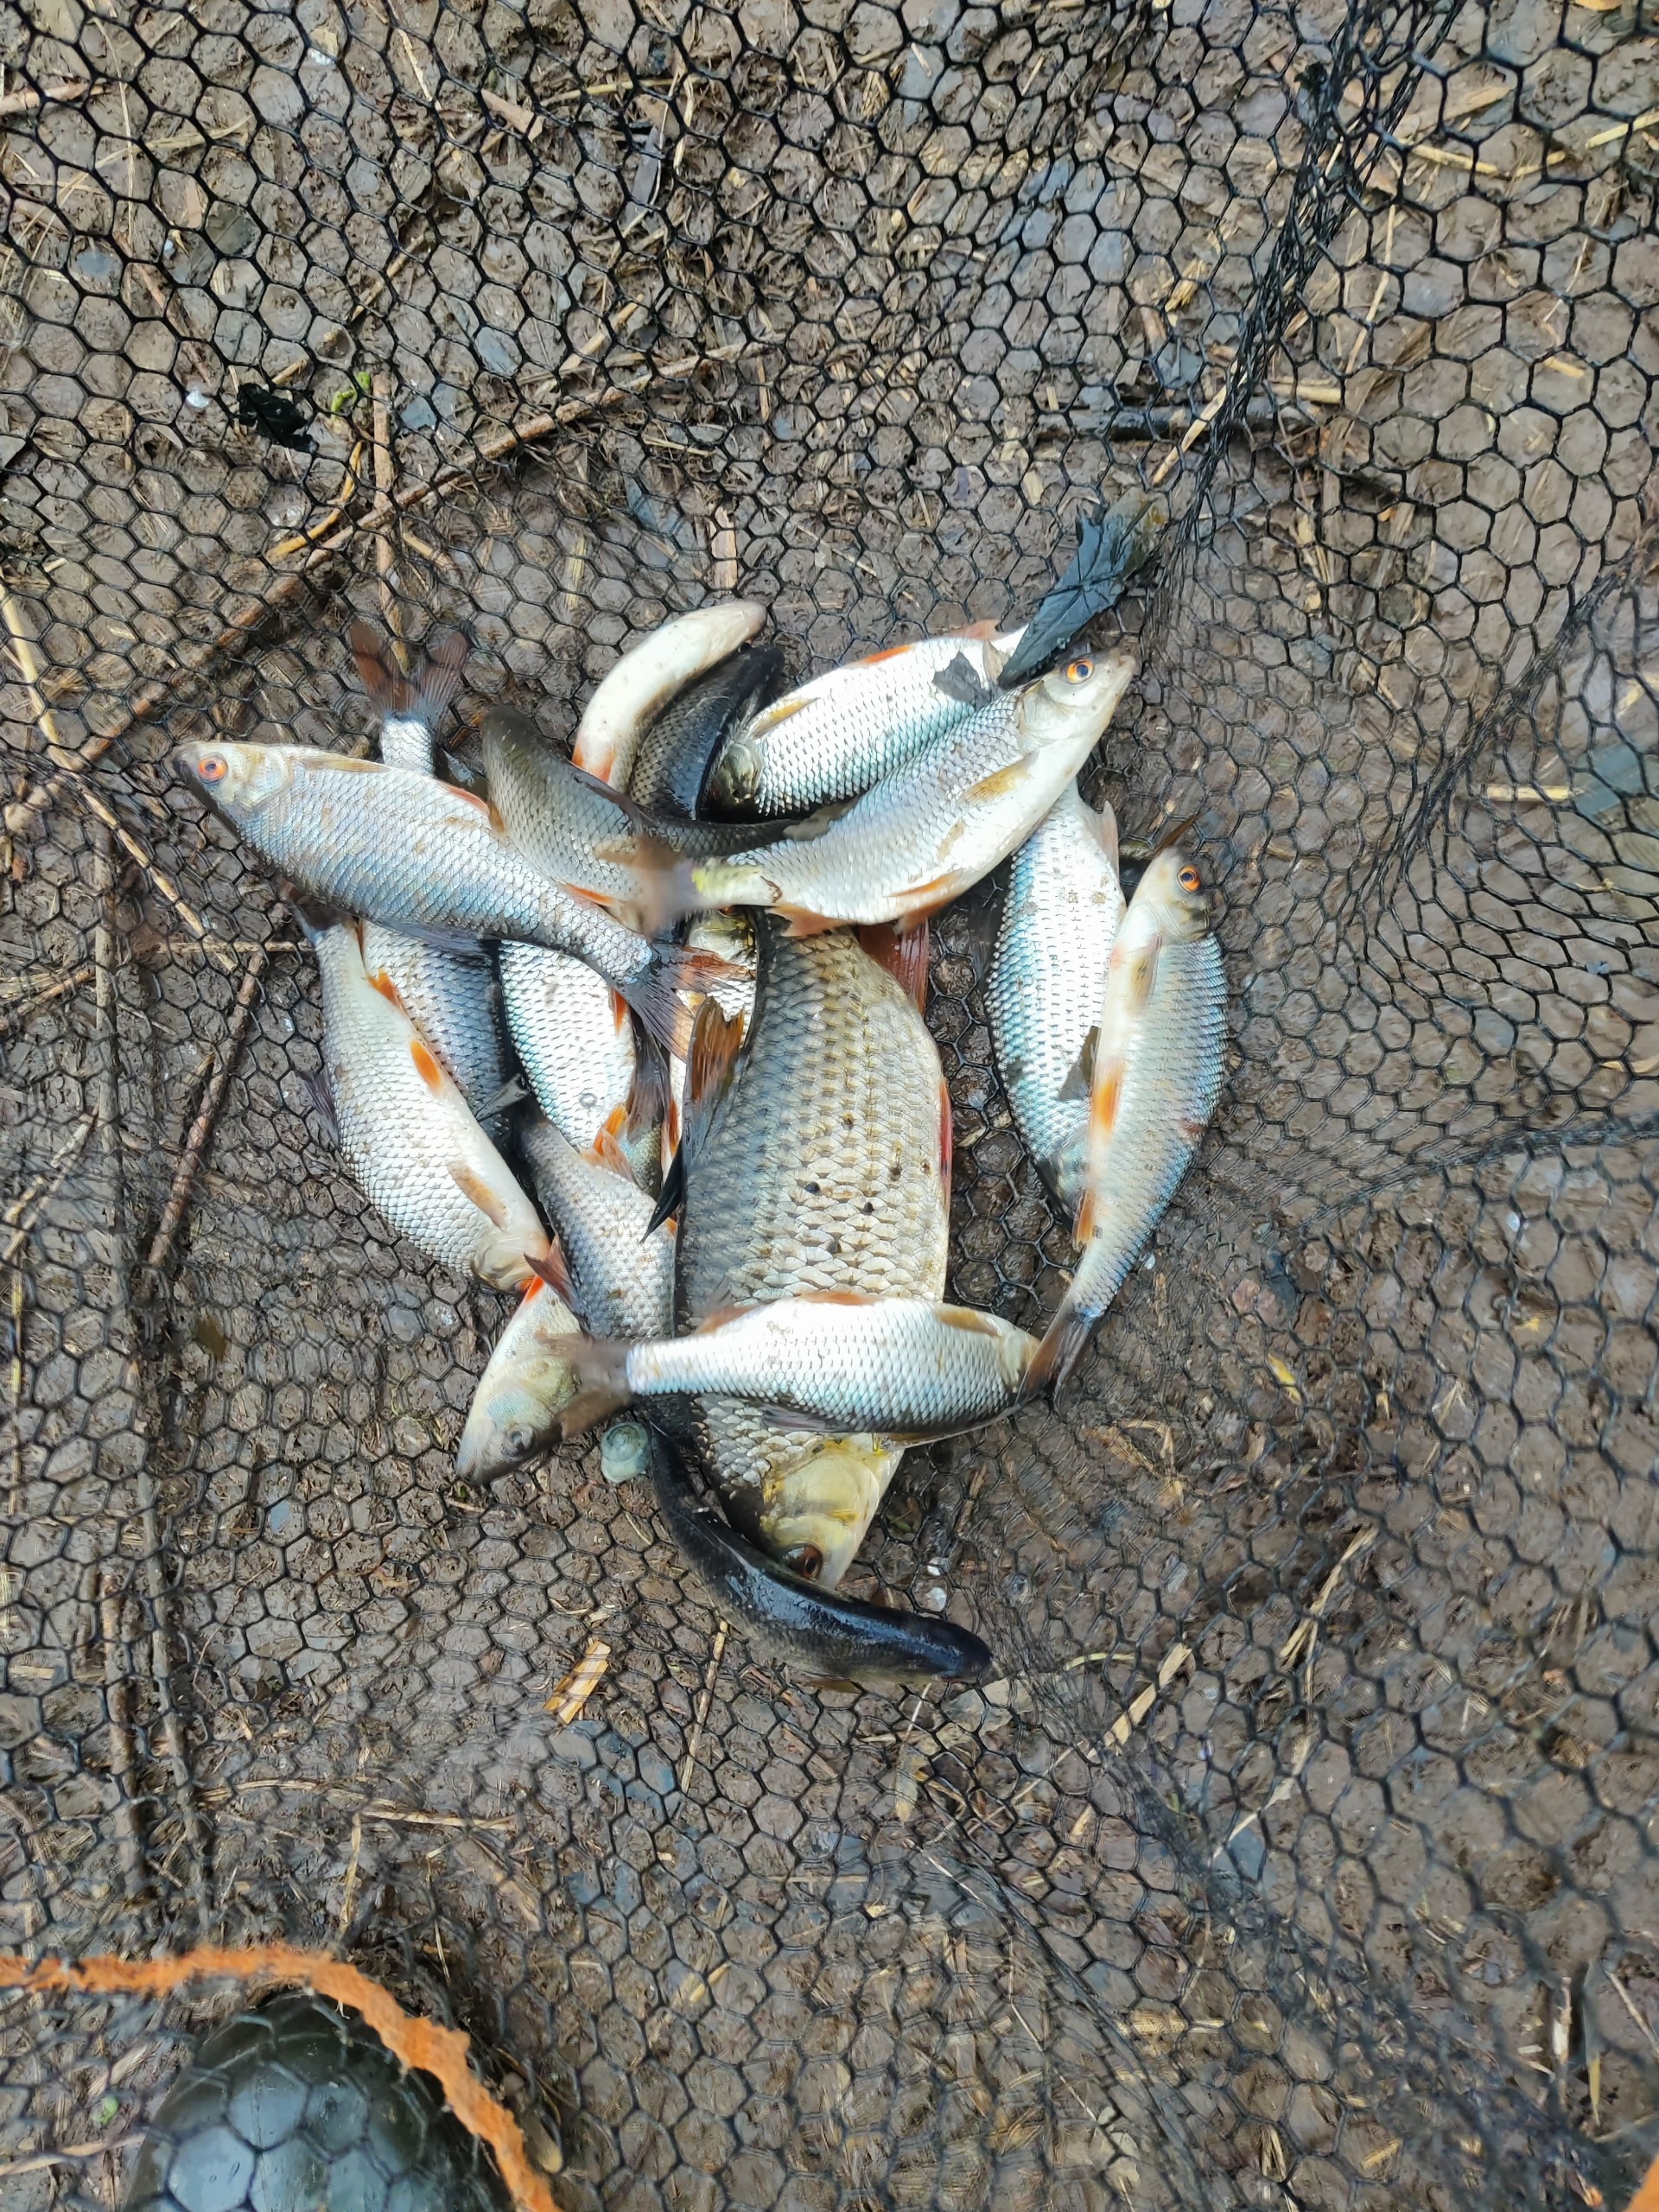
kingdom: Animalia
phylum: Chordata
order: Cypriniformes
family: Cyprinidae
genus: Rutilus
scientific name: Rutilus rutilus
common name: Skalle
